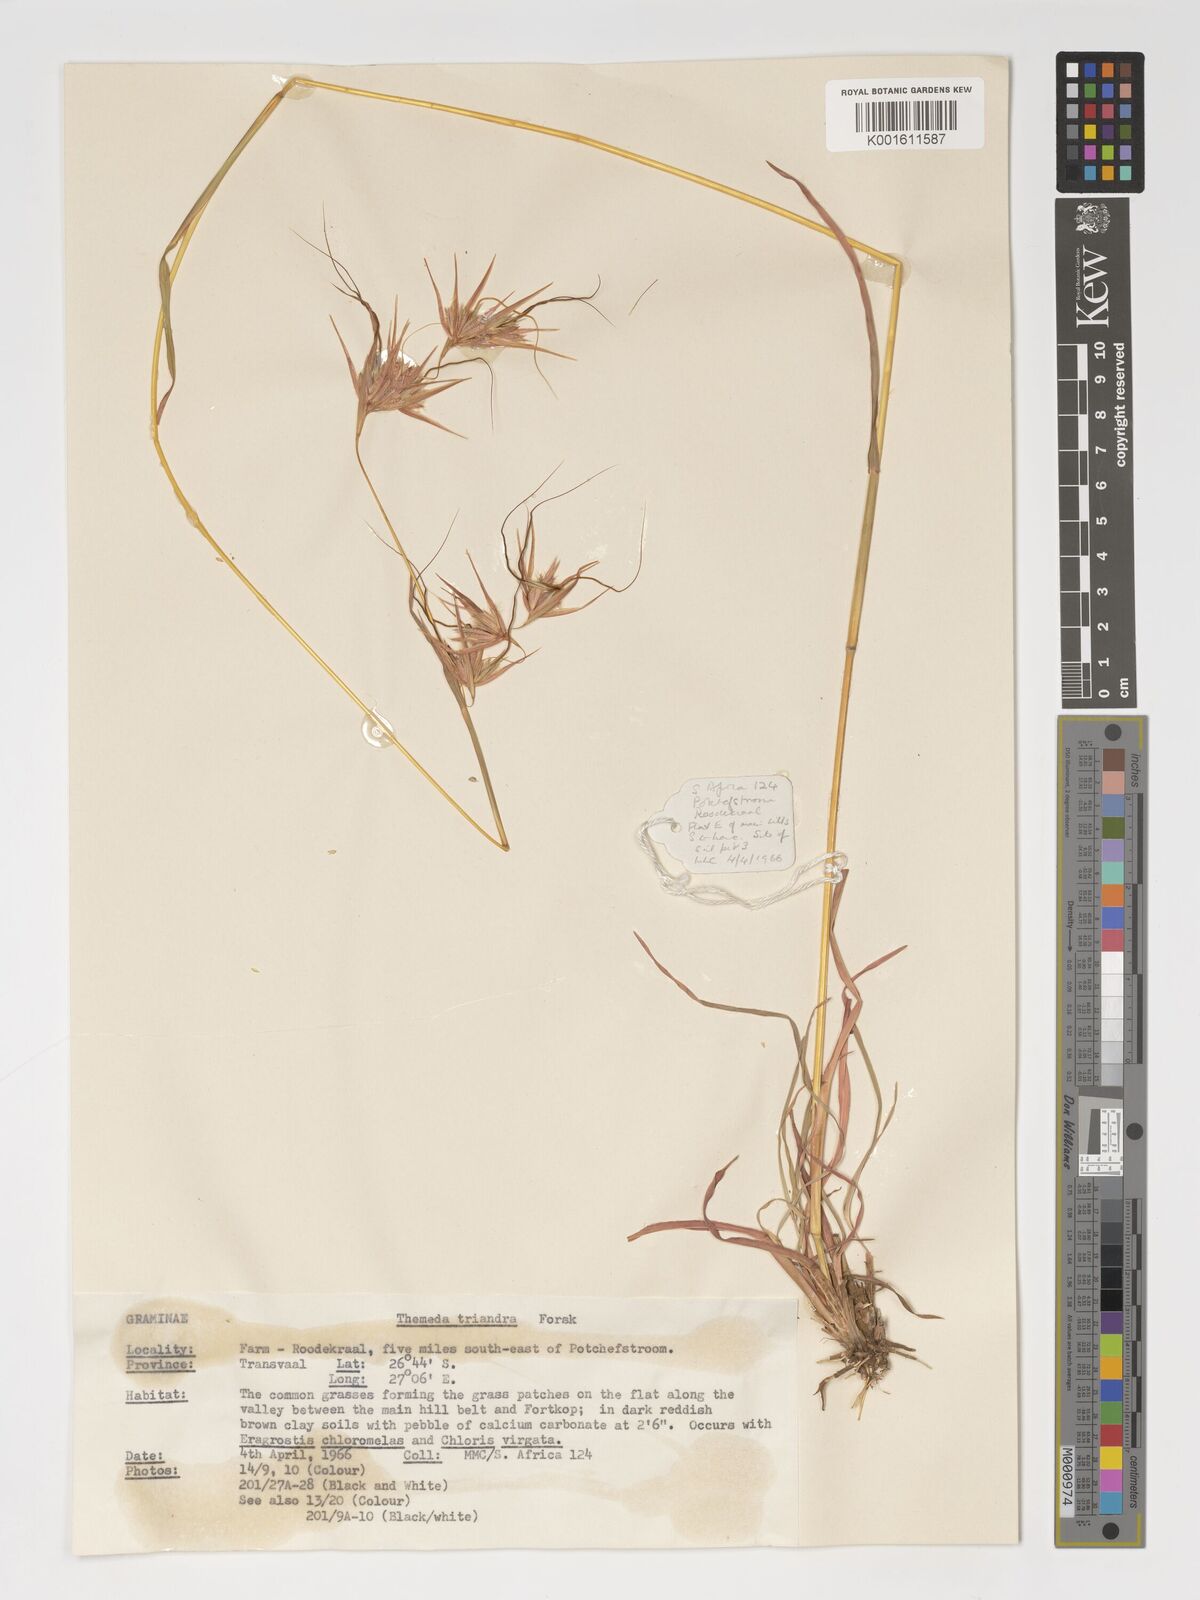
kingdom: Plantae
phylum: Tracheophyta
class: Liliopsida
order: Poales
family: Poaceae
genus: Themeda
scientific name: Themeda triandra
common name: Kangaroo grass
